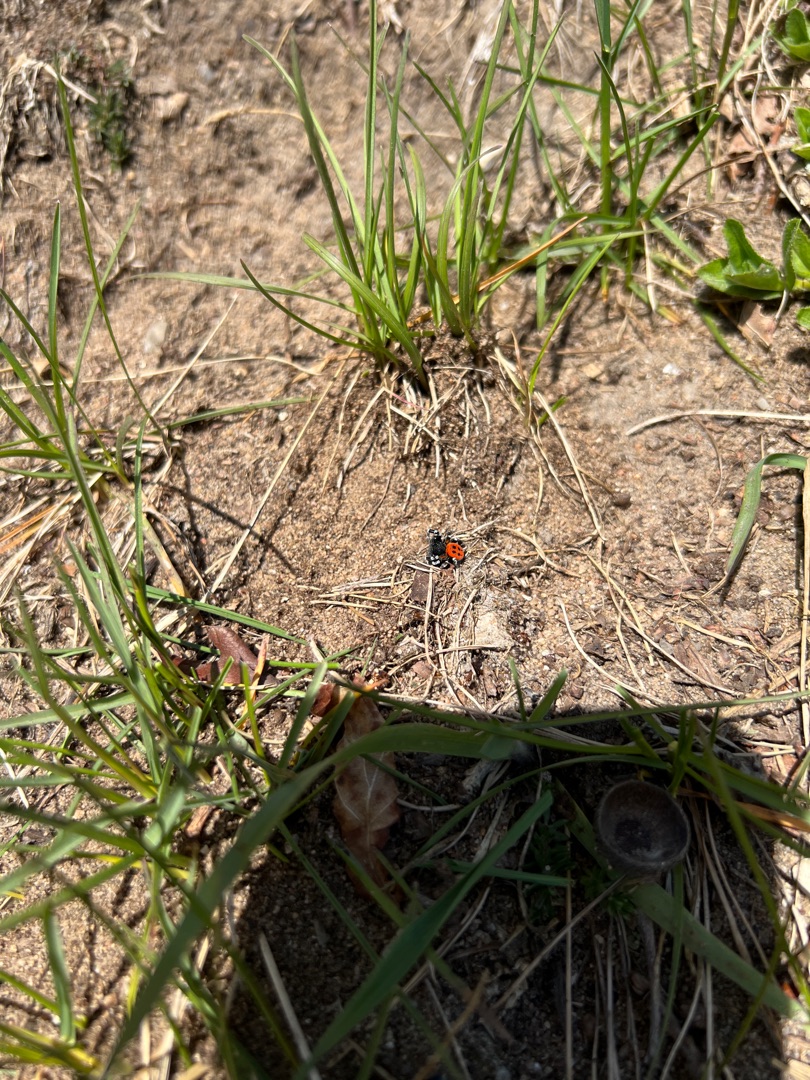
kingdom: Animalia
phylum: Arthropoda
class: Arachnida
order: Araneae
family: Eresidae
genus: Eresus
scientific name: Eresus sandaliatus
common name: Mariehøneedderkop
